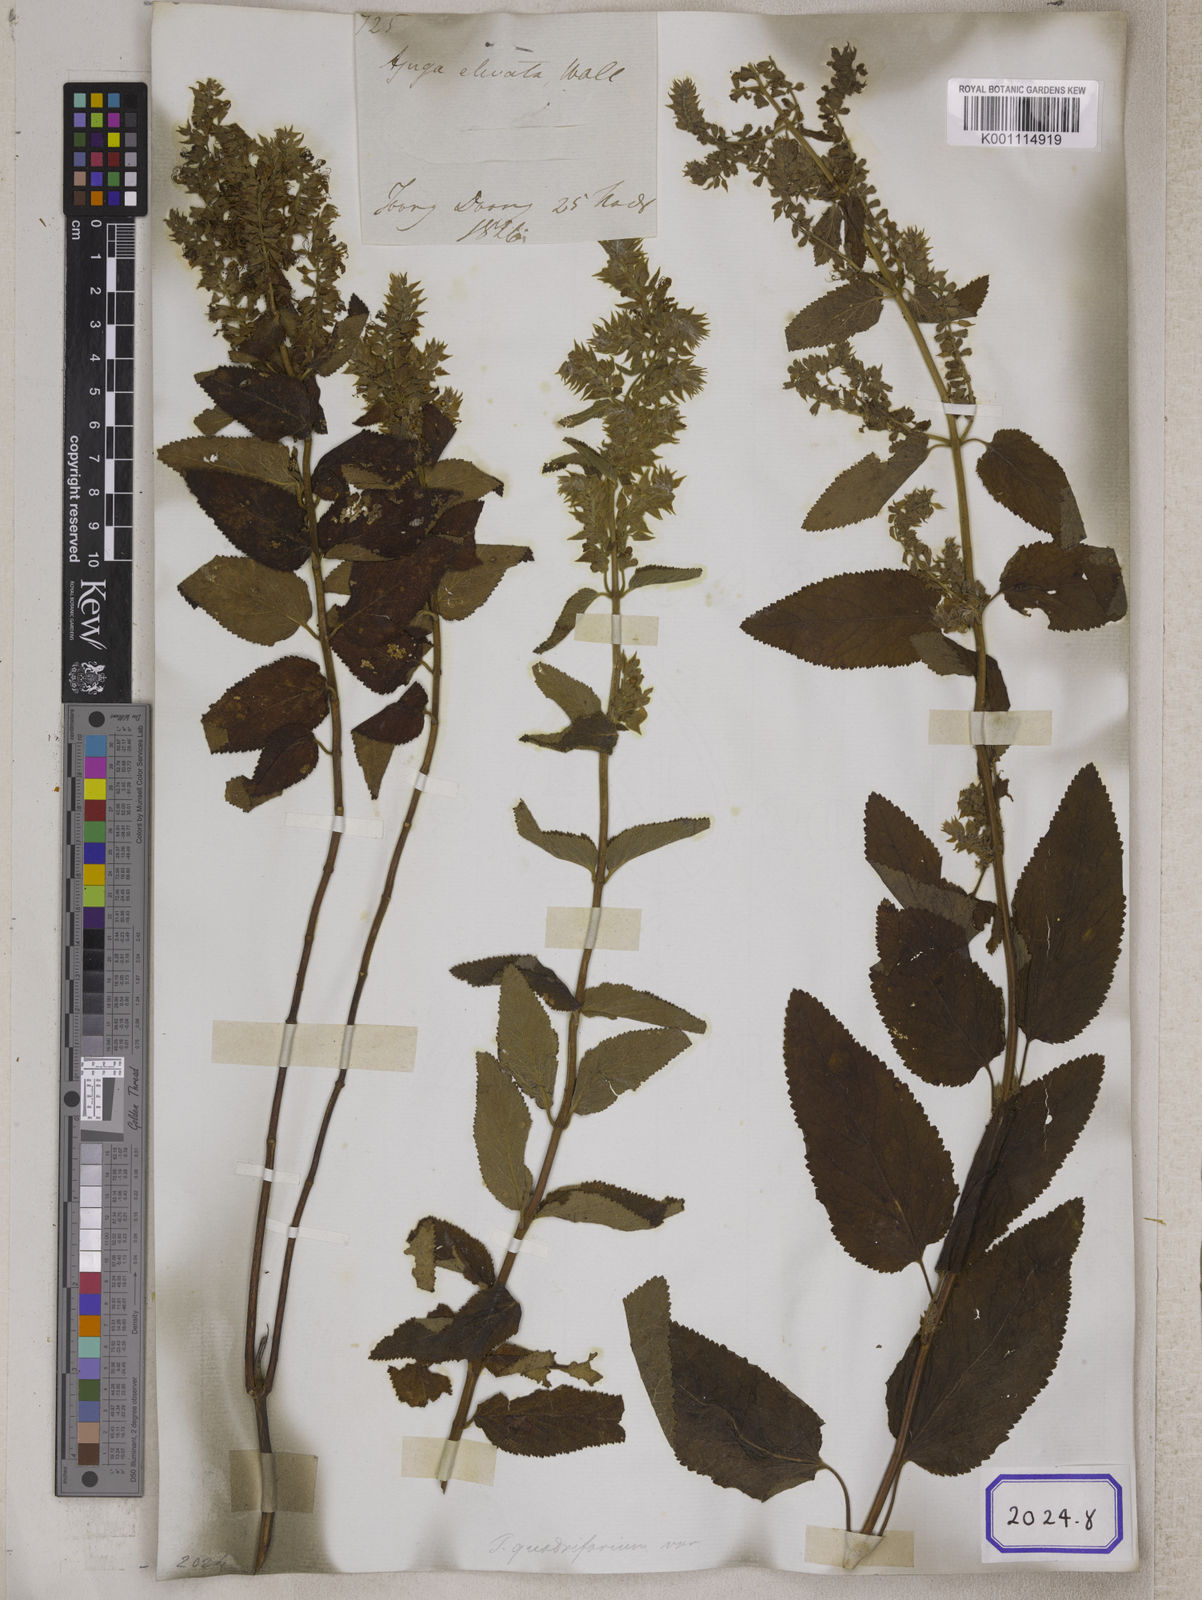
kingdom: Plantae
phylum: Tracheophyta
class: Magnoliopsida
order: Lamiales
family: Lamiaceae
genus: Teucrium
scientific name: Teucrium
